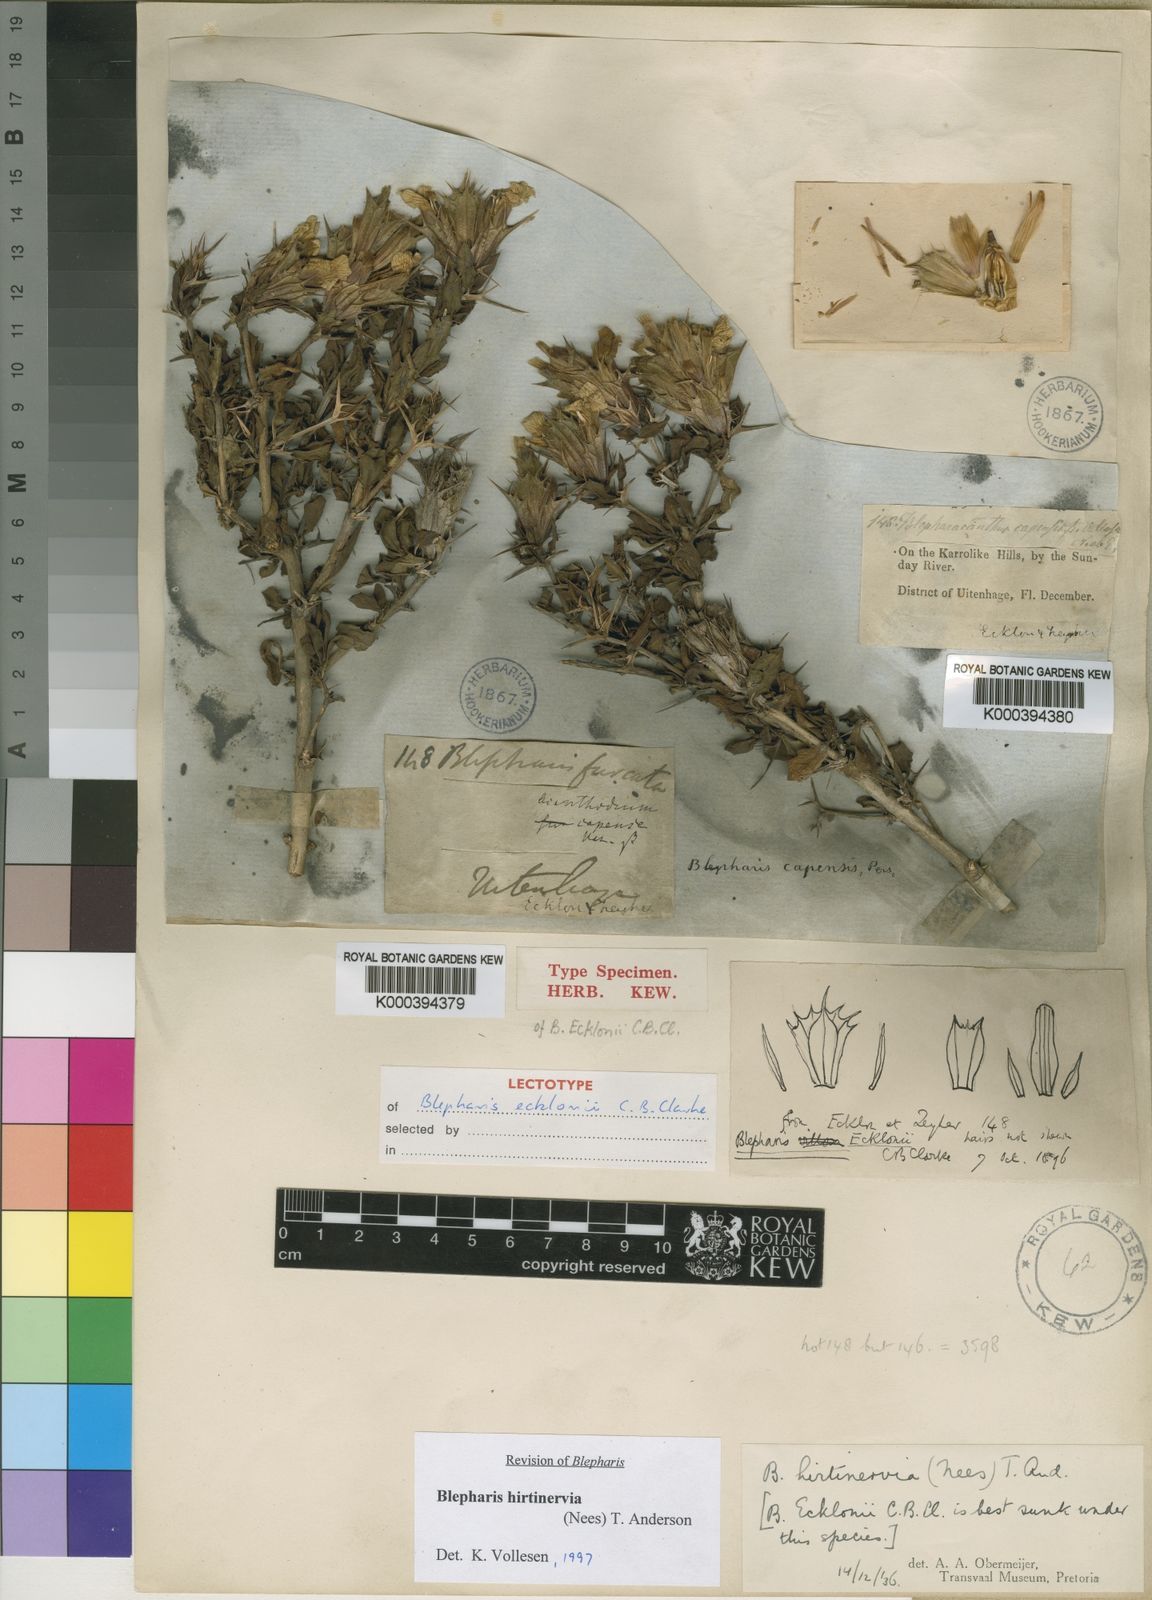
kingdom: Plantae
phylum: Tracheophyta
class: Magnoliopsida
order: Lamiales
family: Acanthaceae
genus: Blepharis
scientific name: Blepharis hirtinervia
